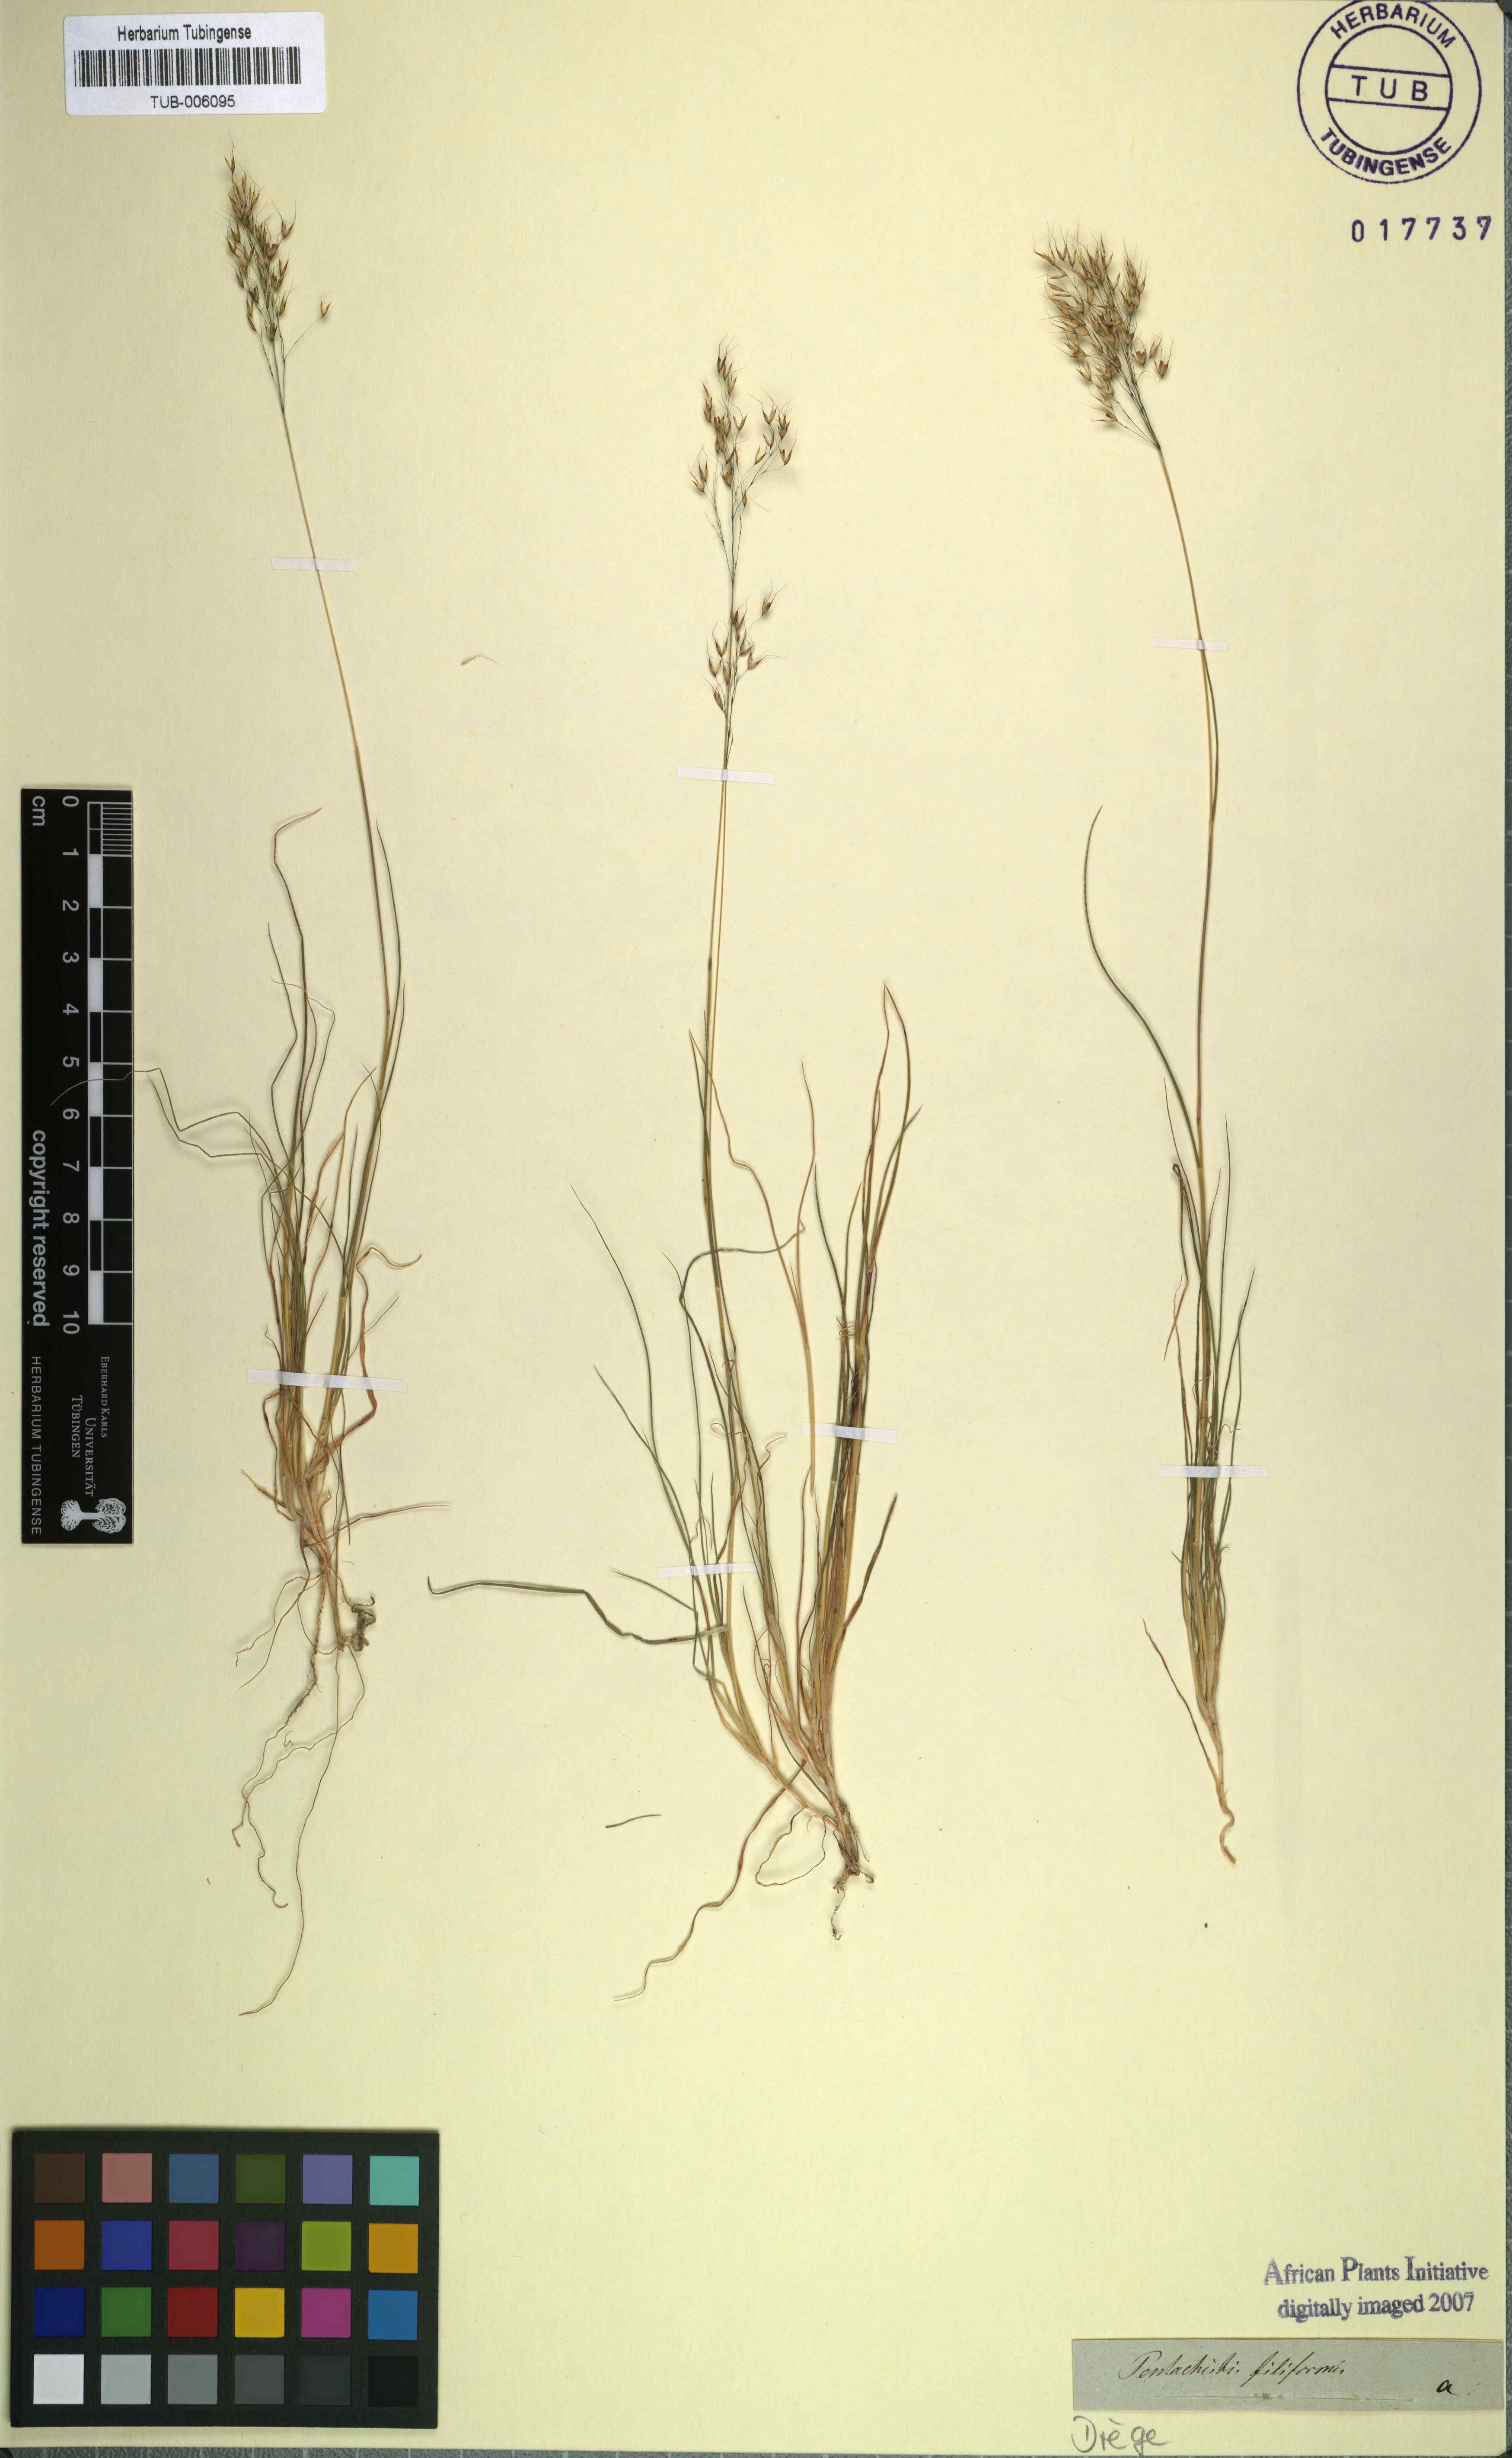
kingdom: Plantae
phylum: Tracheophyta
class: Liliopsida
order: Poales
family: Poaceae
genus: Pentameris
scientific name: Pentameris pallida
